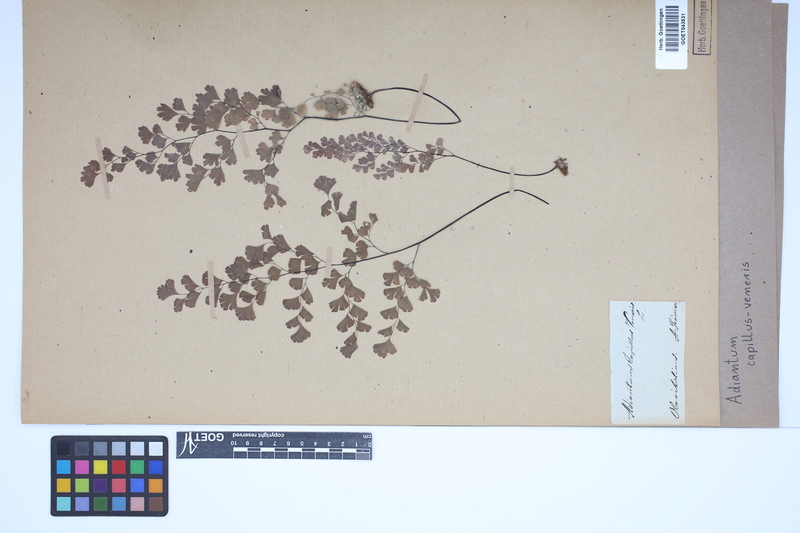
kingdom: Plantae
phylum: Tracheophyta
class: Polypodiopsida
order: Polypodiales
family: Pteridaceae
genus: Adiantum
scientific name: Adiantum capillus-veneris
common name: Maidenhair fern
